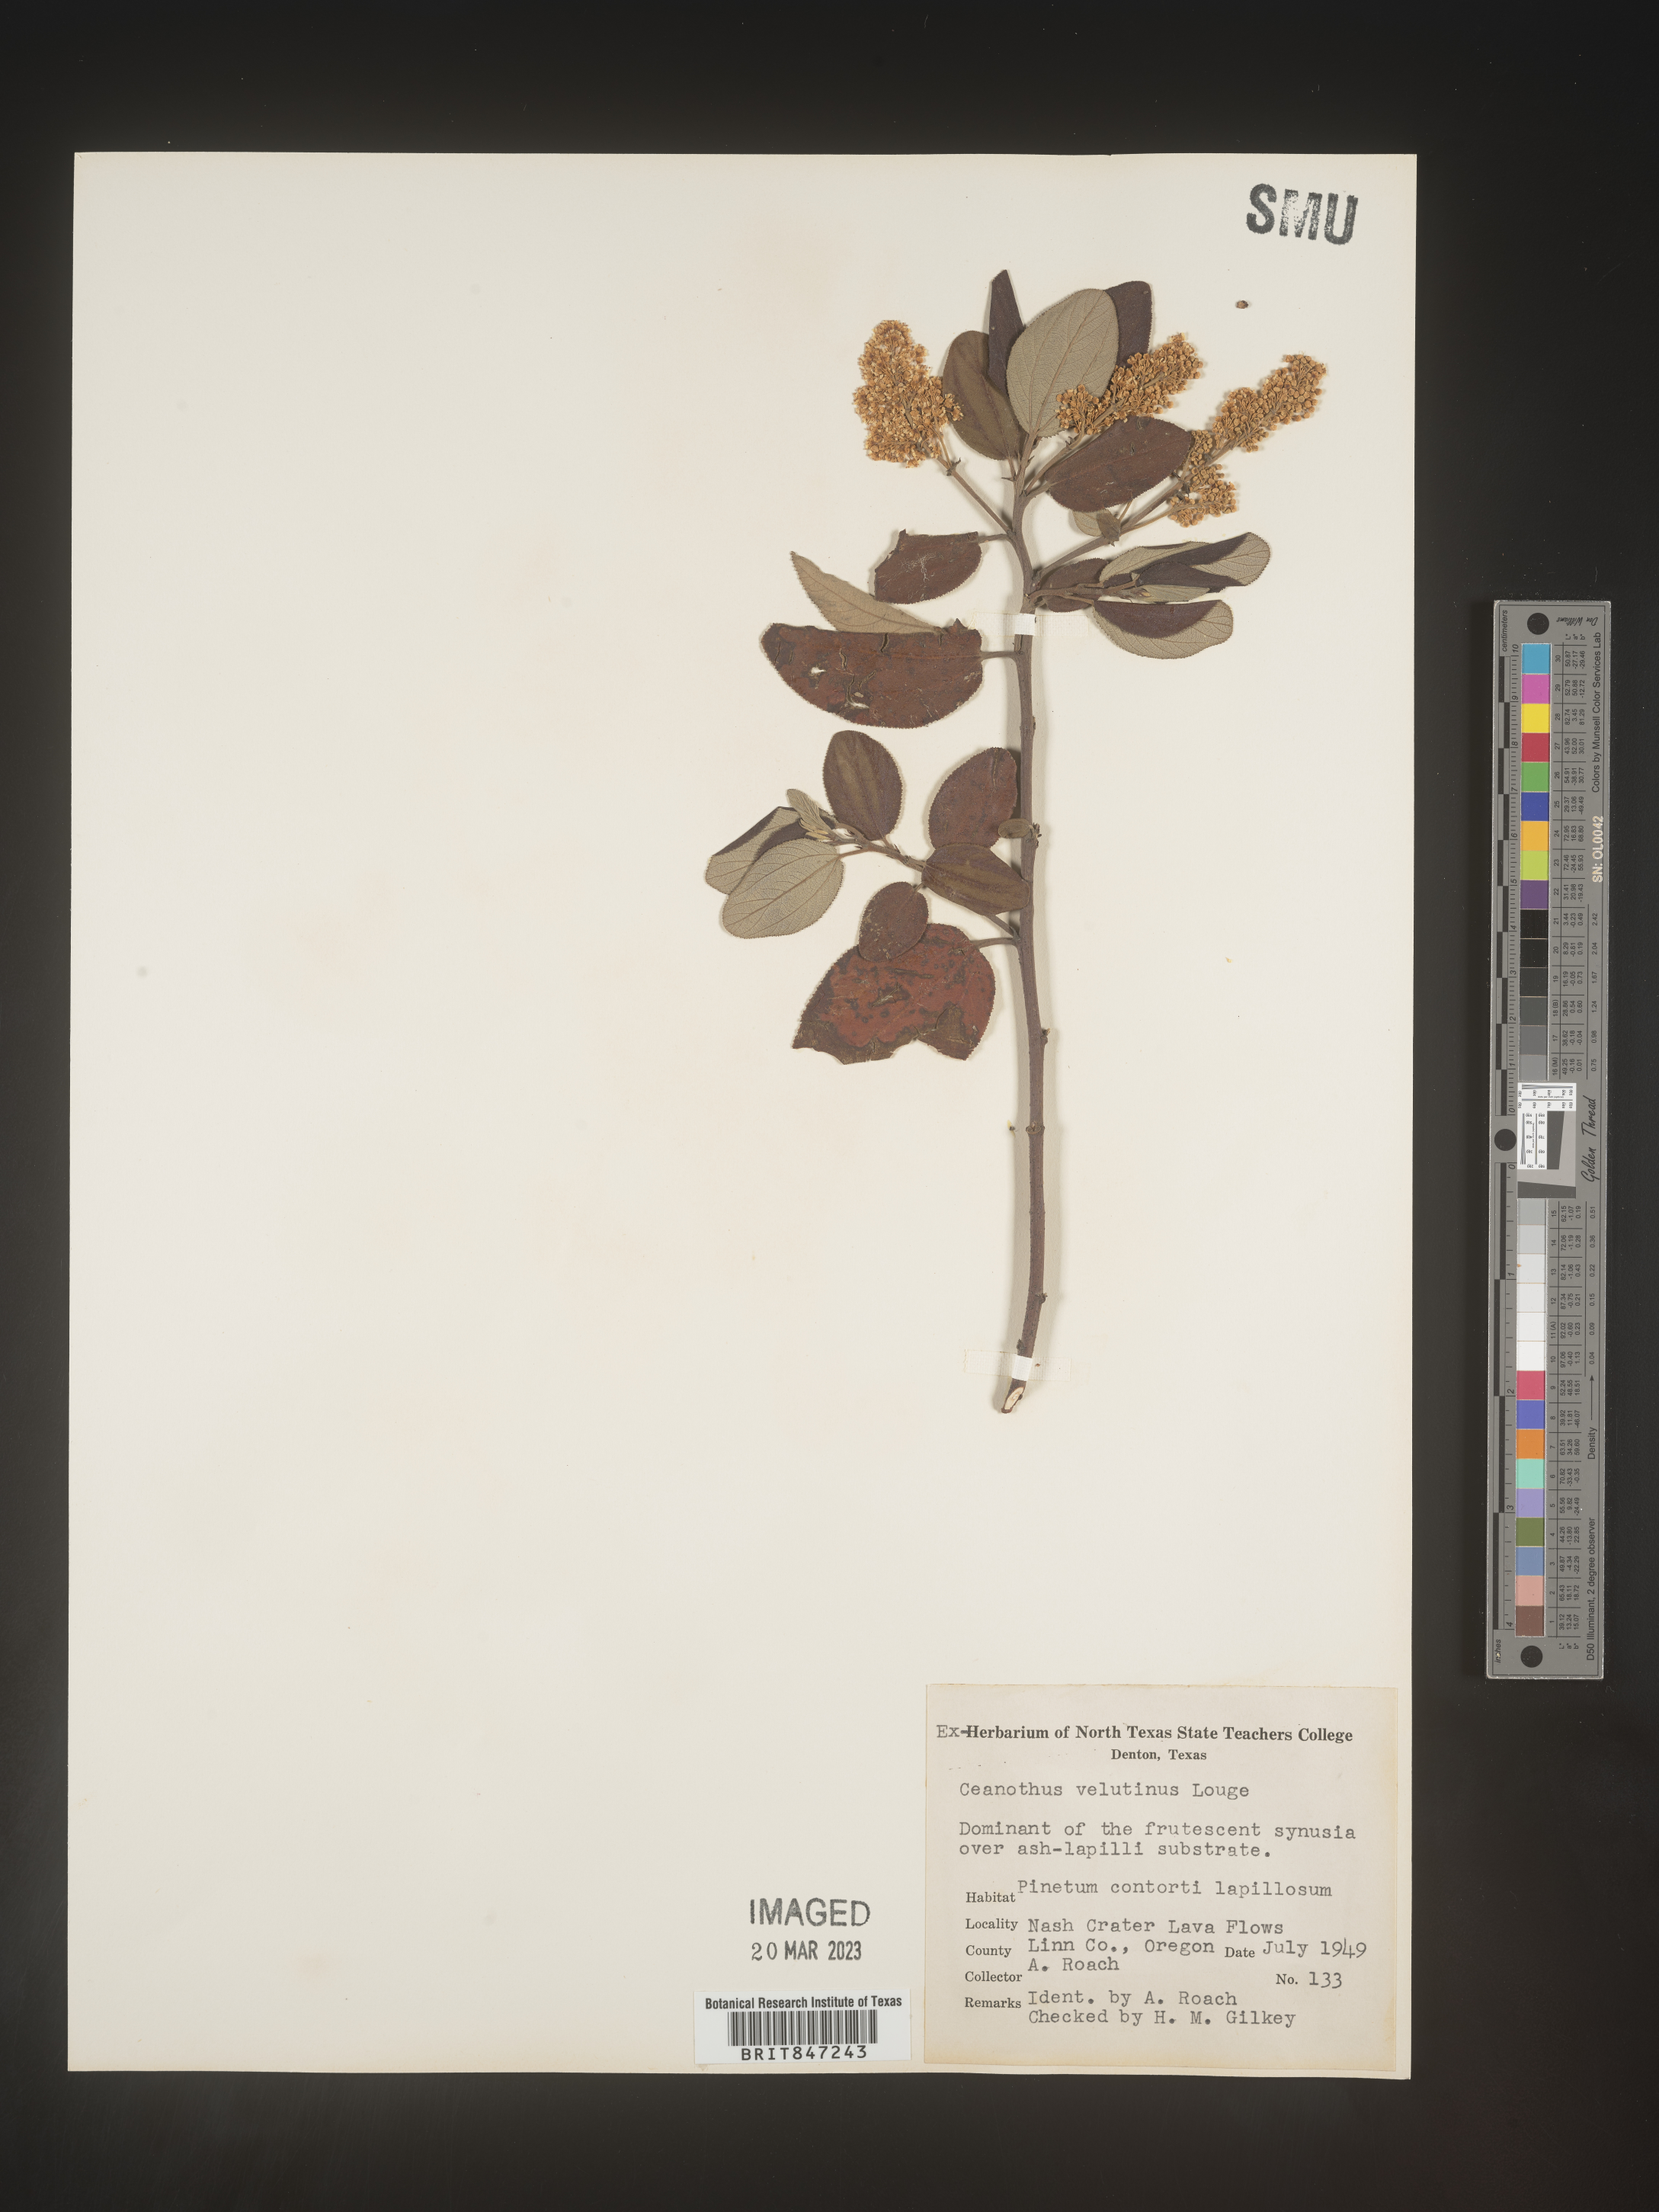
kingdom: Plantae
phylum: Tracheophyta
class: Magnoliopsida
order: Rosales
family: Rhamnaceae
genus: Ceanothus
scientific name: Ceanothus velutinus
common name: Snowbrush
